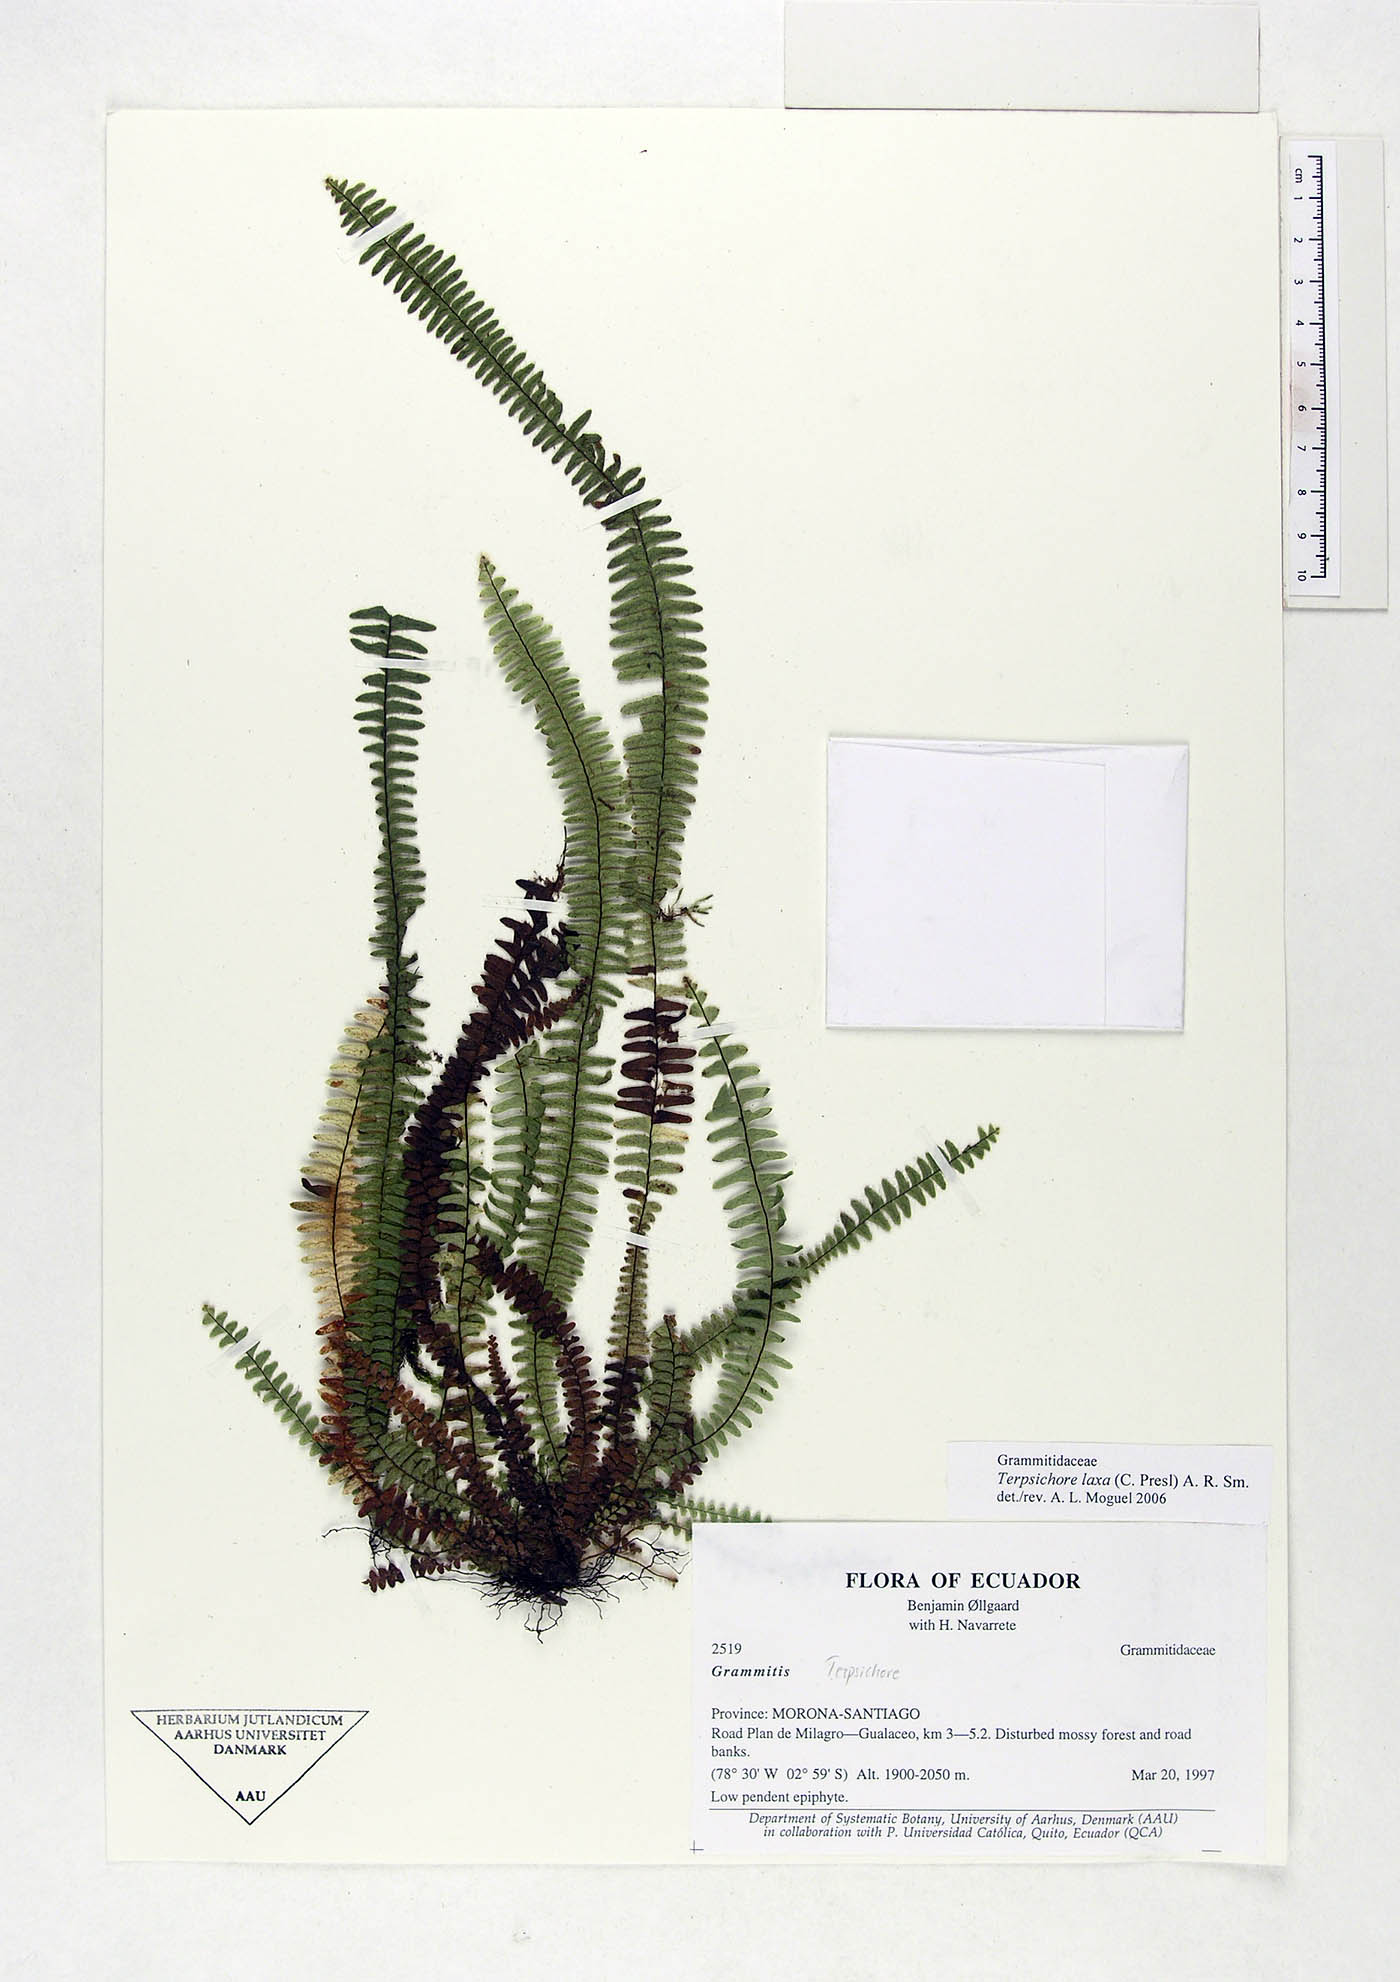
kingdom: Plantae
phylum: Tracheophyta
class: Polypodiopsida
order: Polypodiales
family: Polypodiaceae
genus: Alansmia
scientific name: Alansmia laxa
